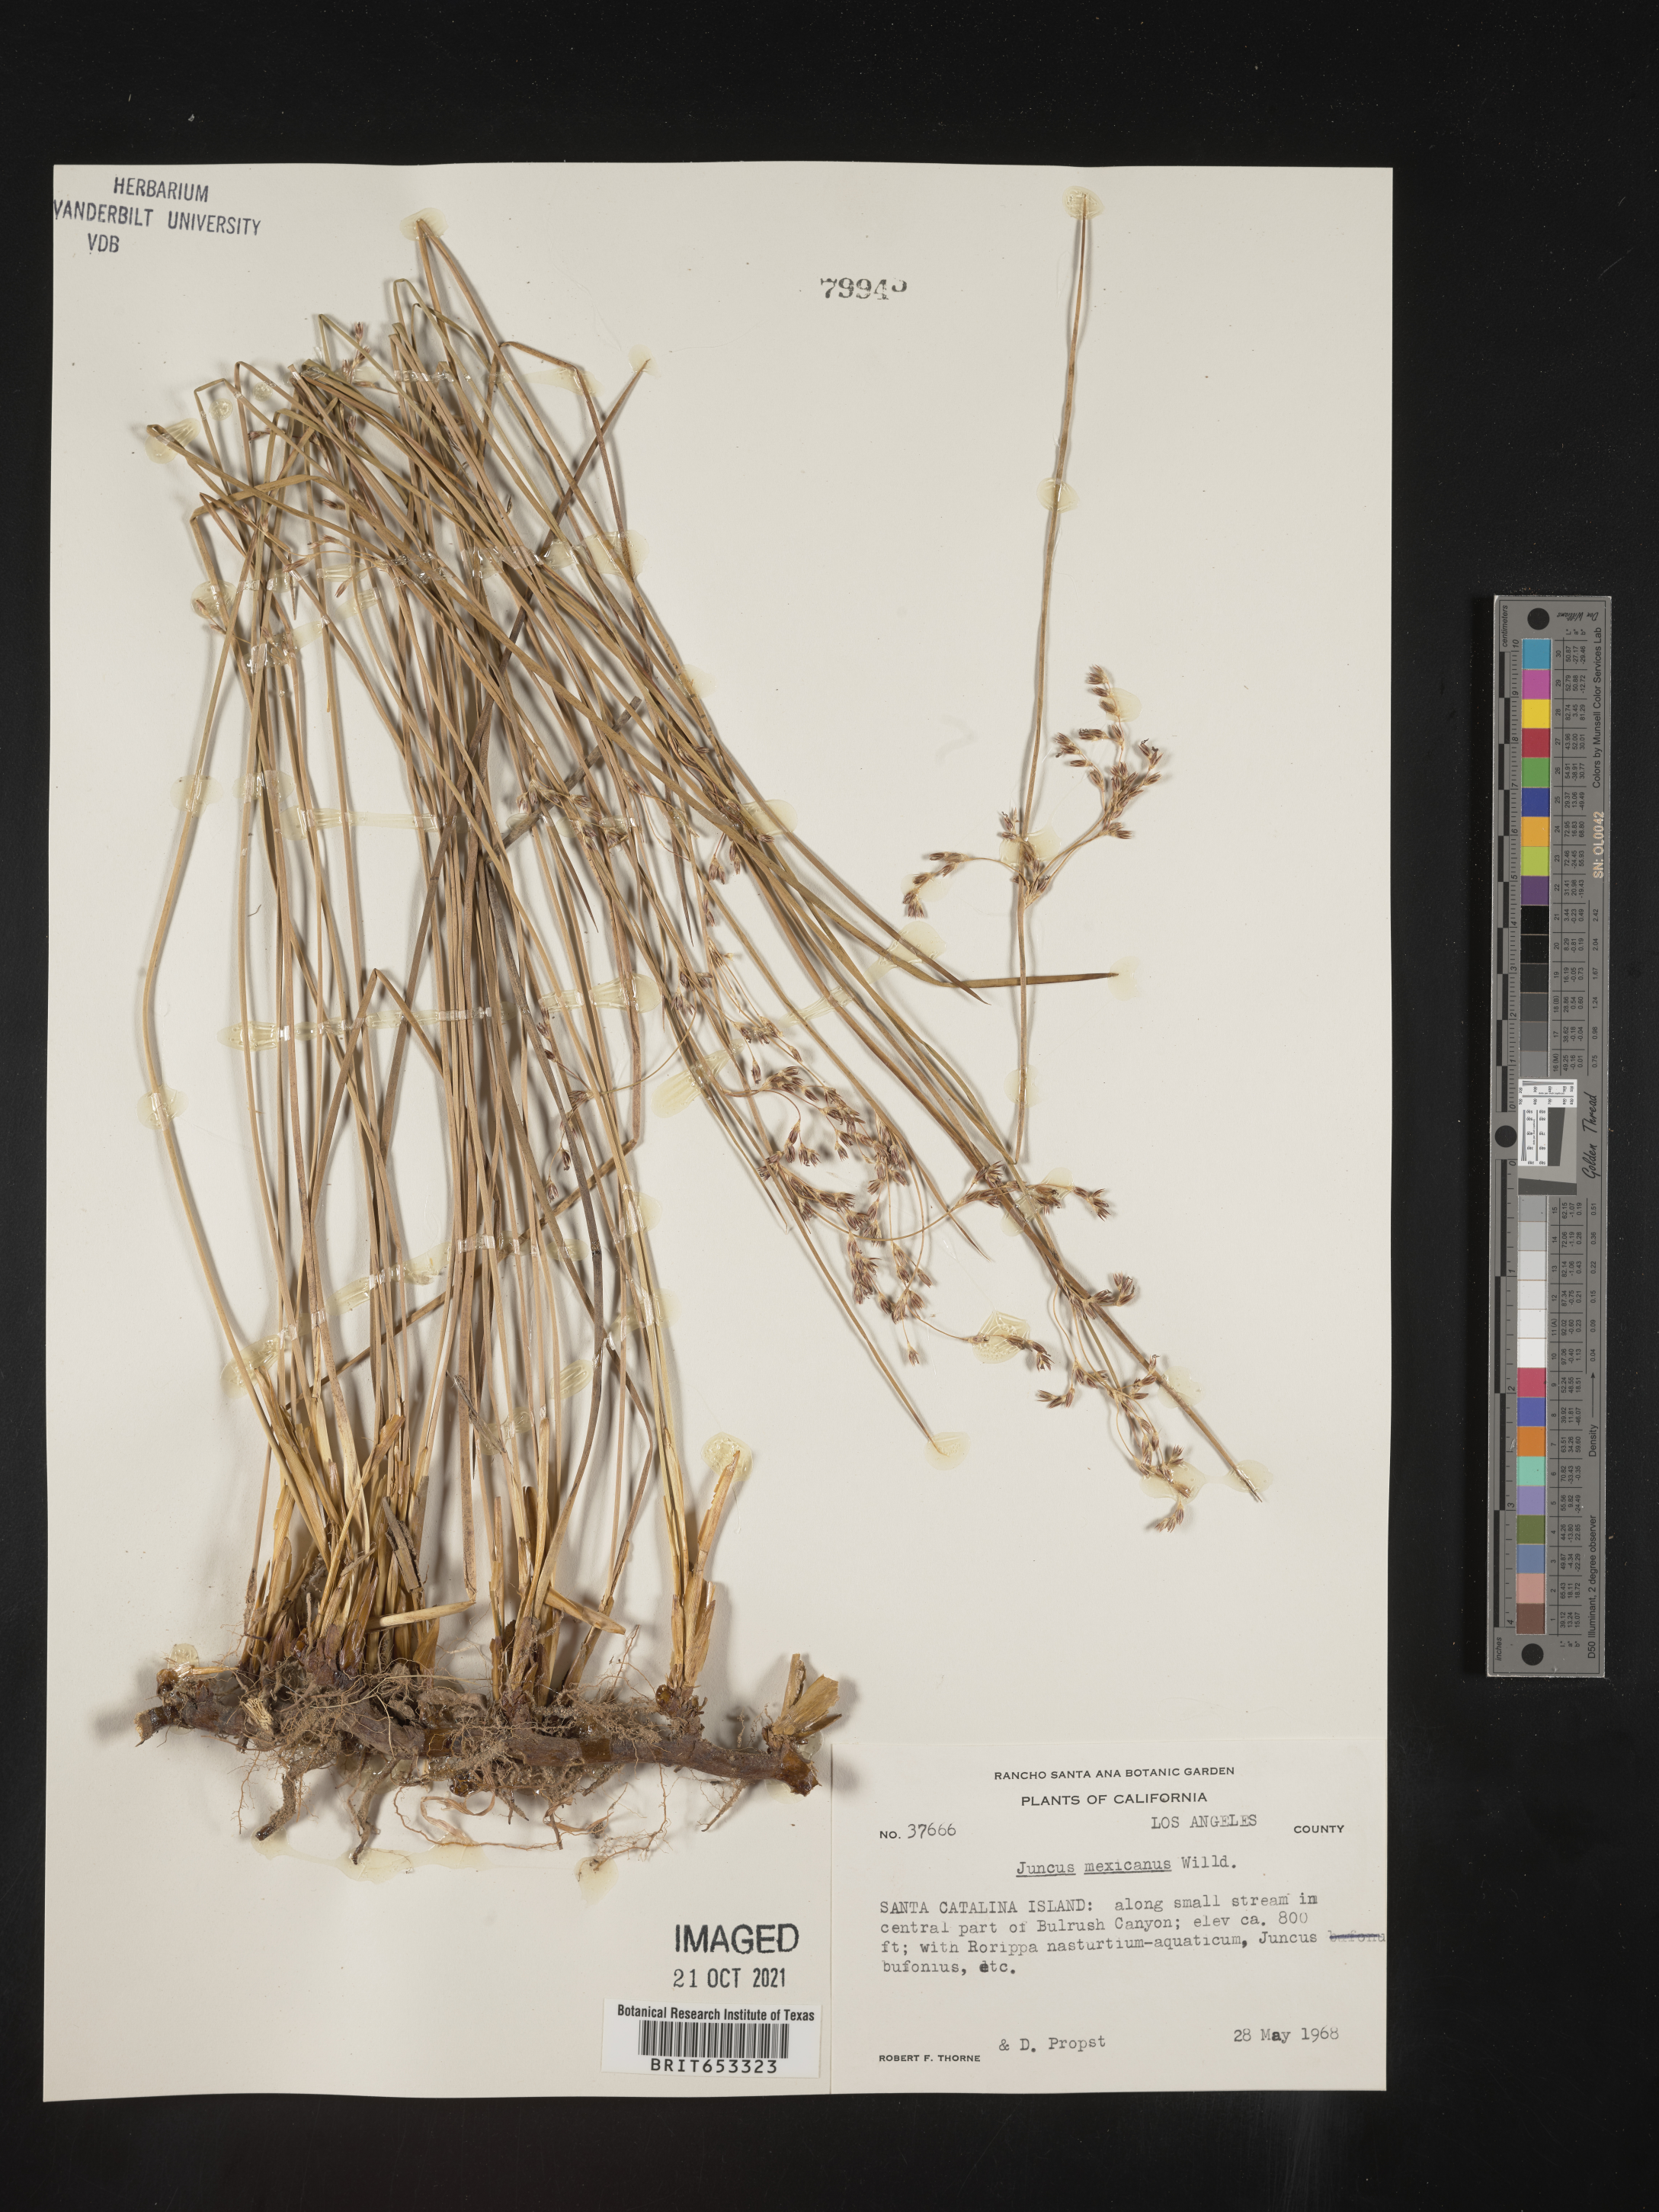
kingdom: Plantae
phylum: Tracheophyta
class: Liliopsida
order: Poales
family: Juncaceae
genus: Juncus
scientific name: Juncus balticus
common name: Baltic rush
